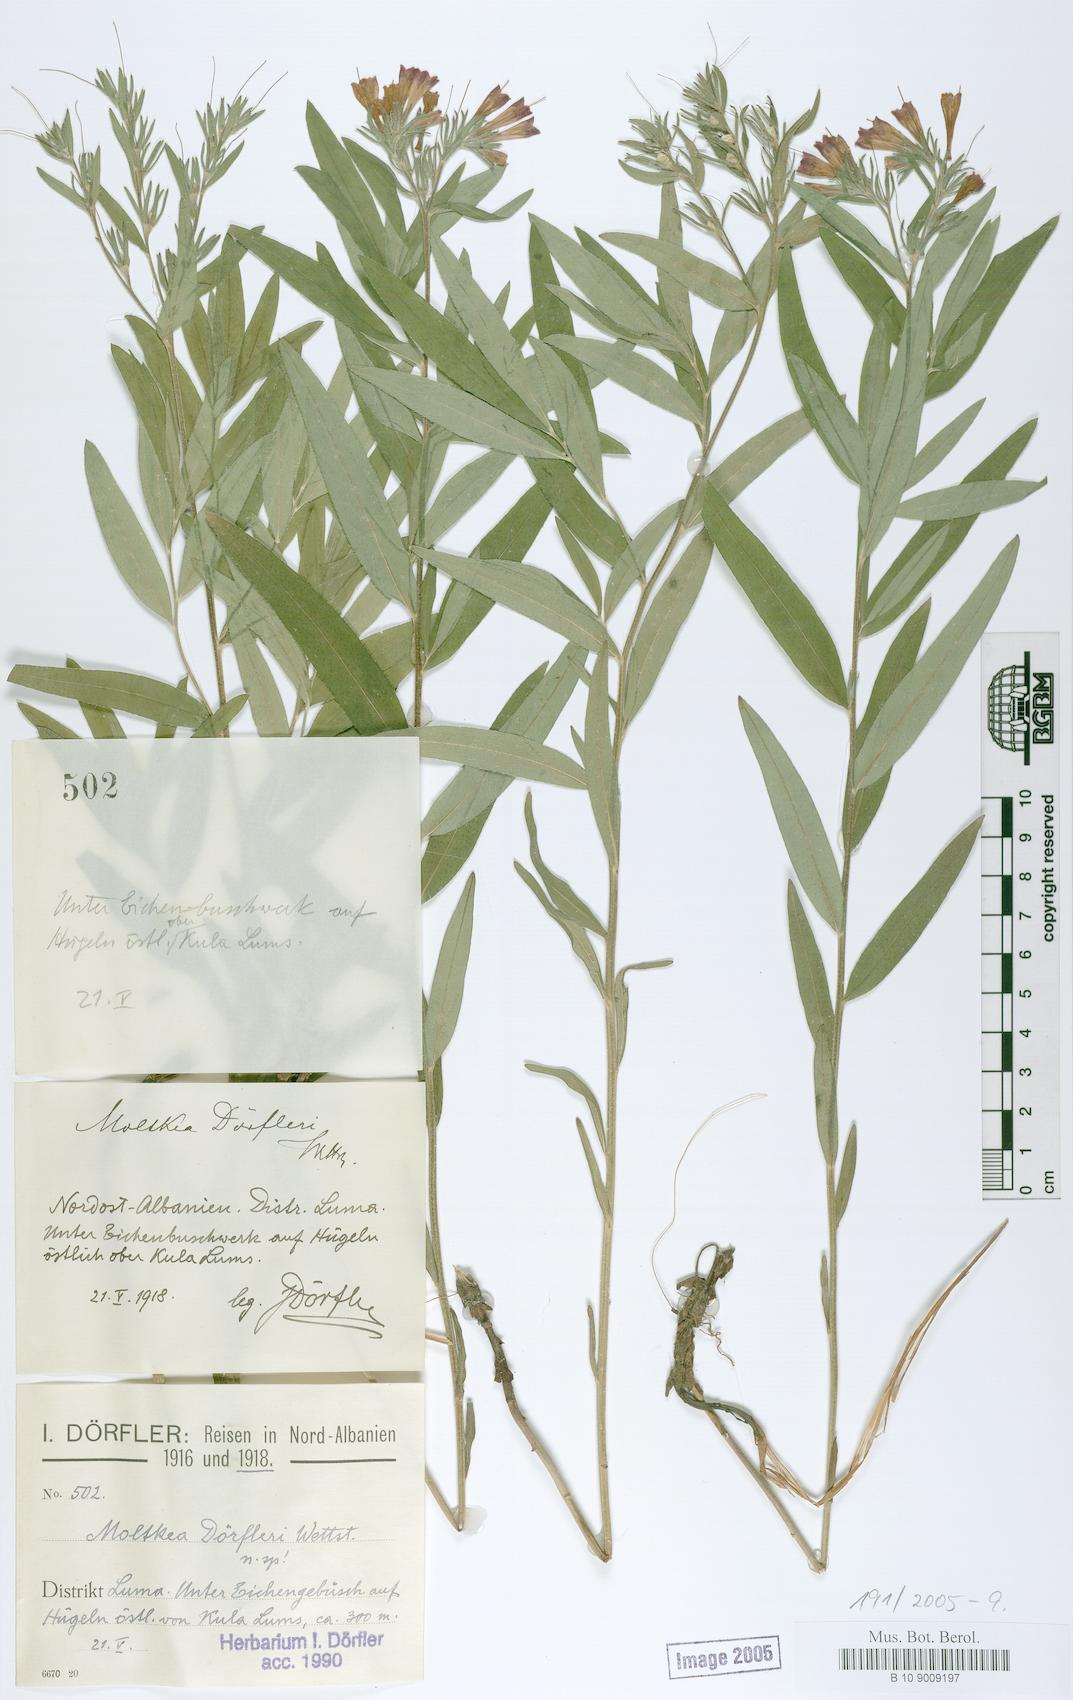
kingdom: Plantae
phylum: Tracheophyta
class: Magnoliopsida
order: Boraginales
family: Boraginaceae
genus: Paramoltkia
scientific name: Paramoltkia doerfleri
